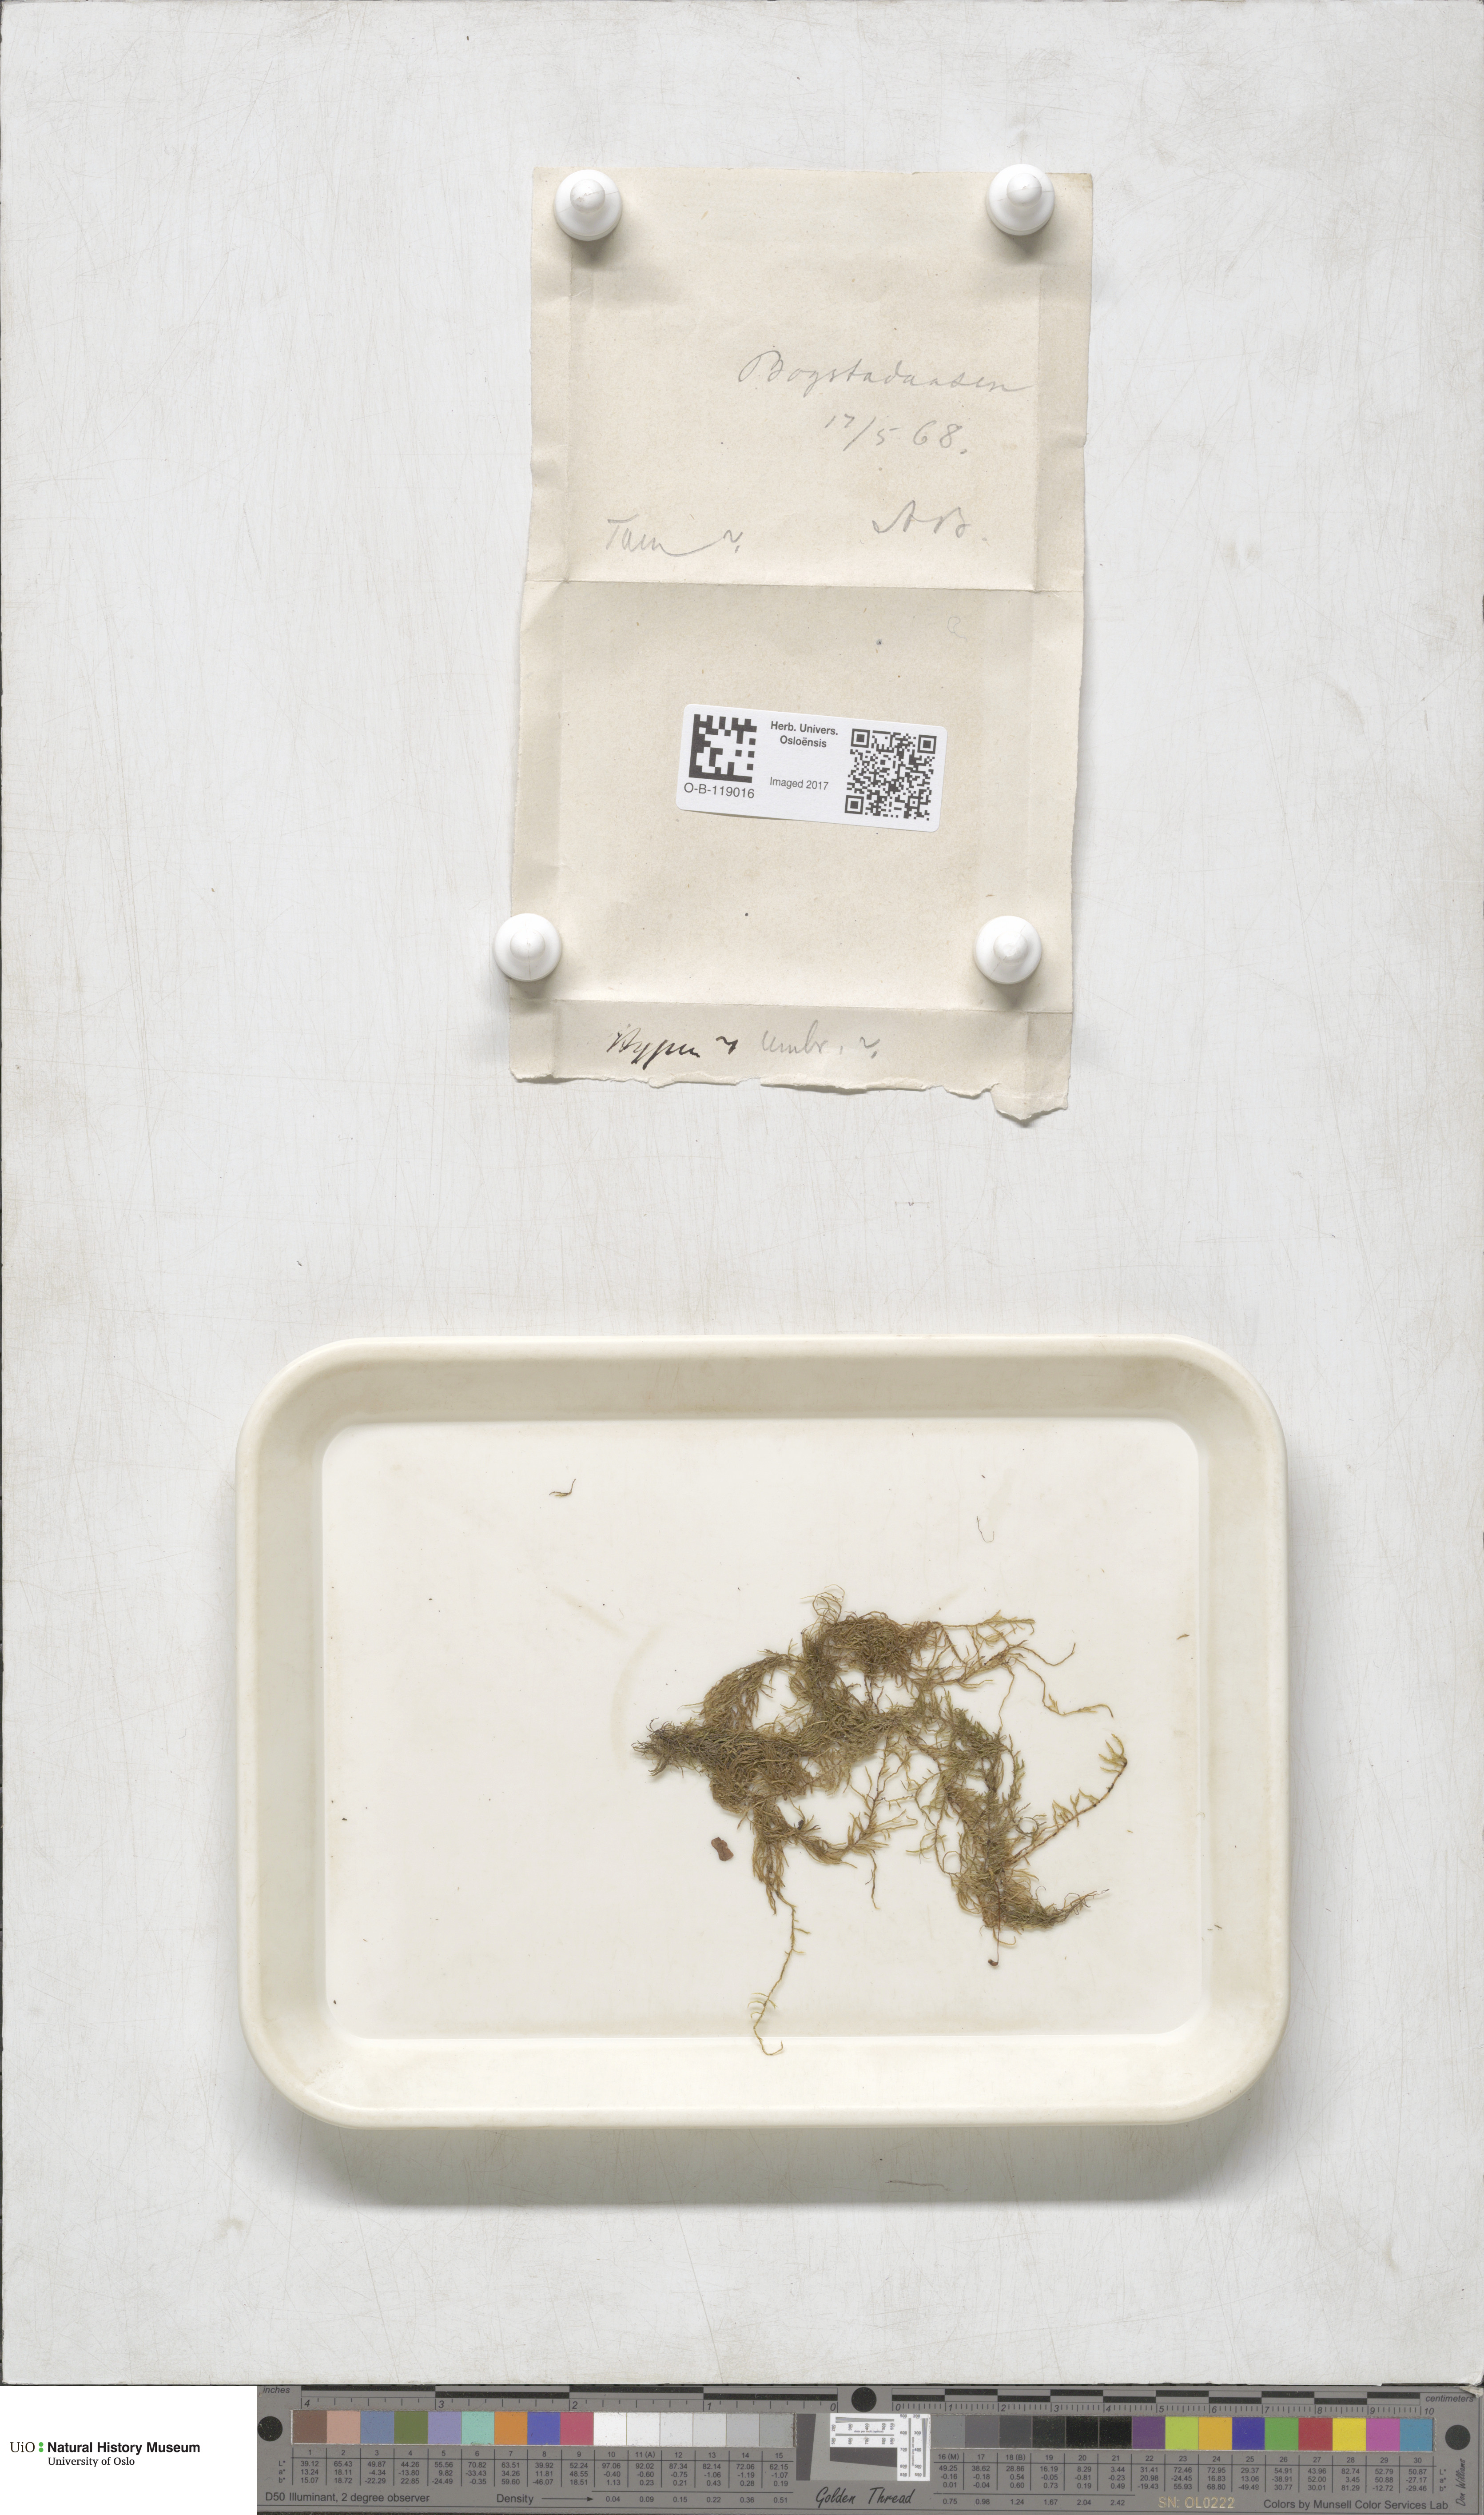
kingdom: Plantae
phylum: Bryophyta
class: Bryopsida
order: Hypnales
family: Hylocomiaceae
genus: Hylocomiastrum
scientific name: Hylocomiastrum umbratum
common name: Shaded woods moss
